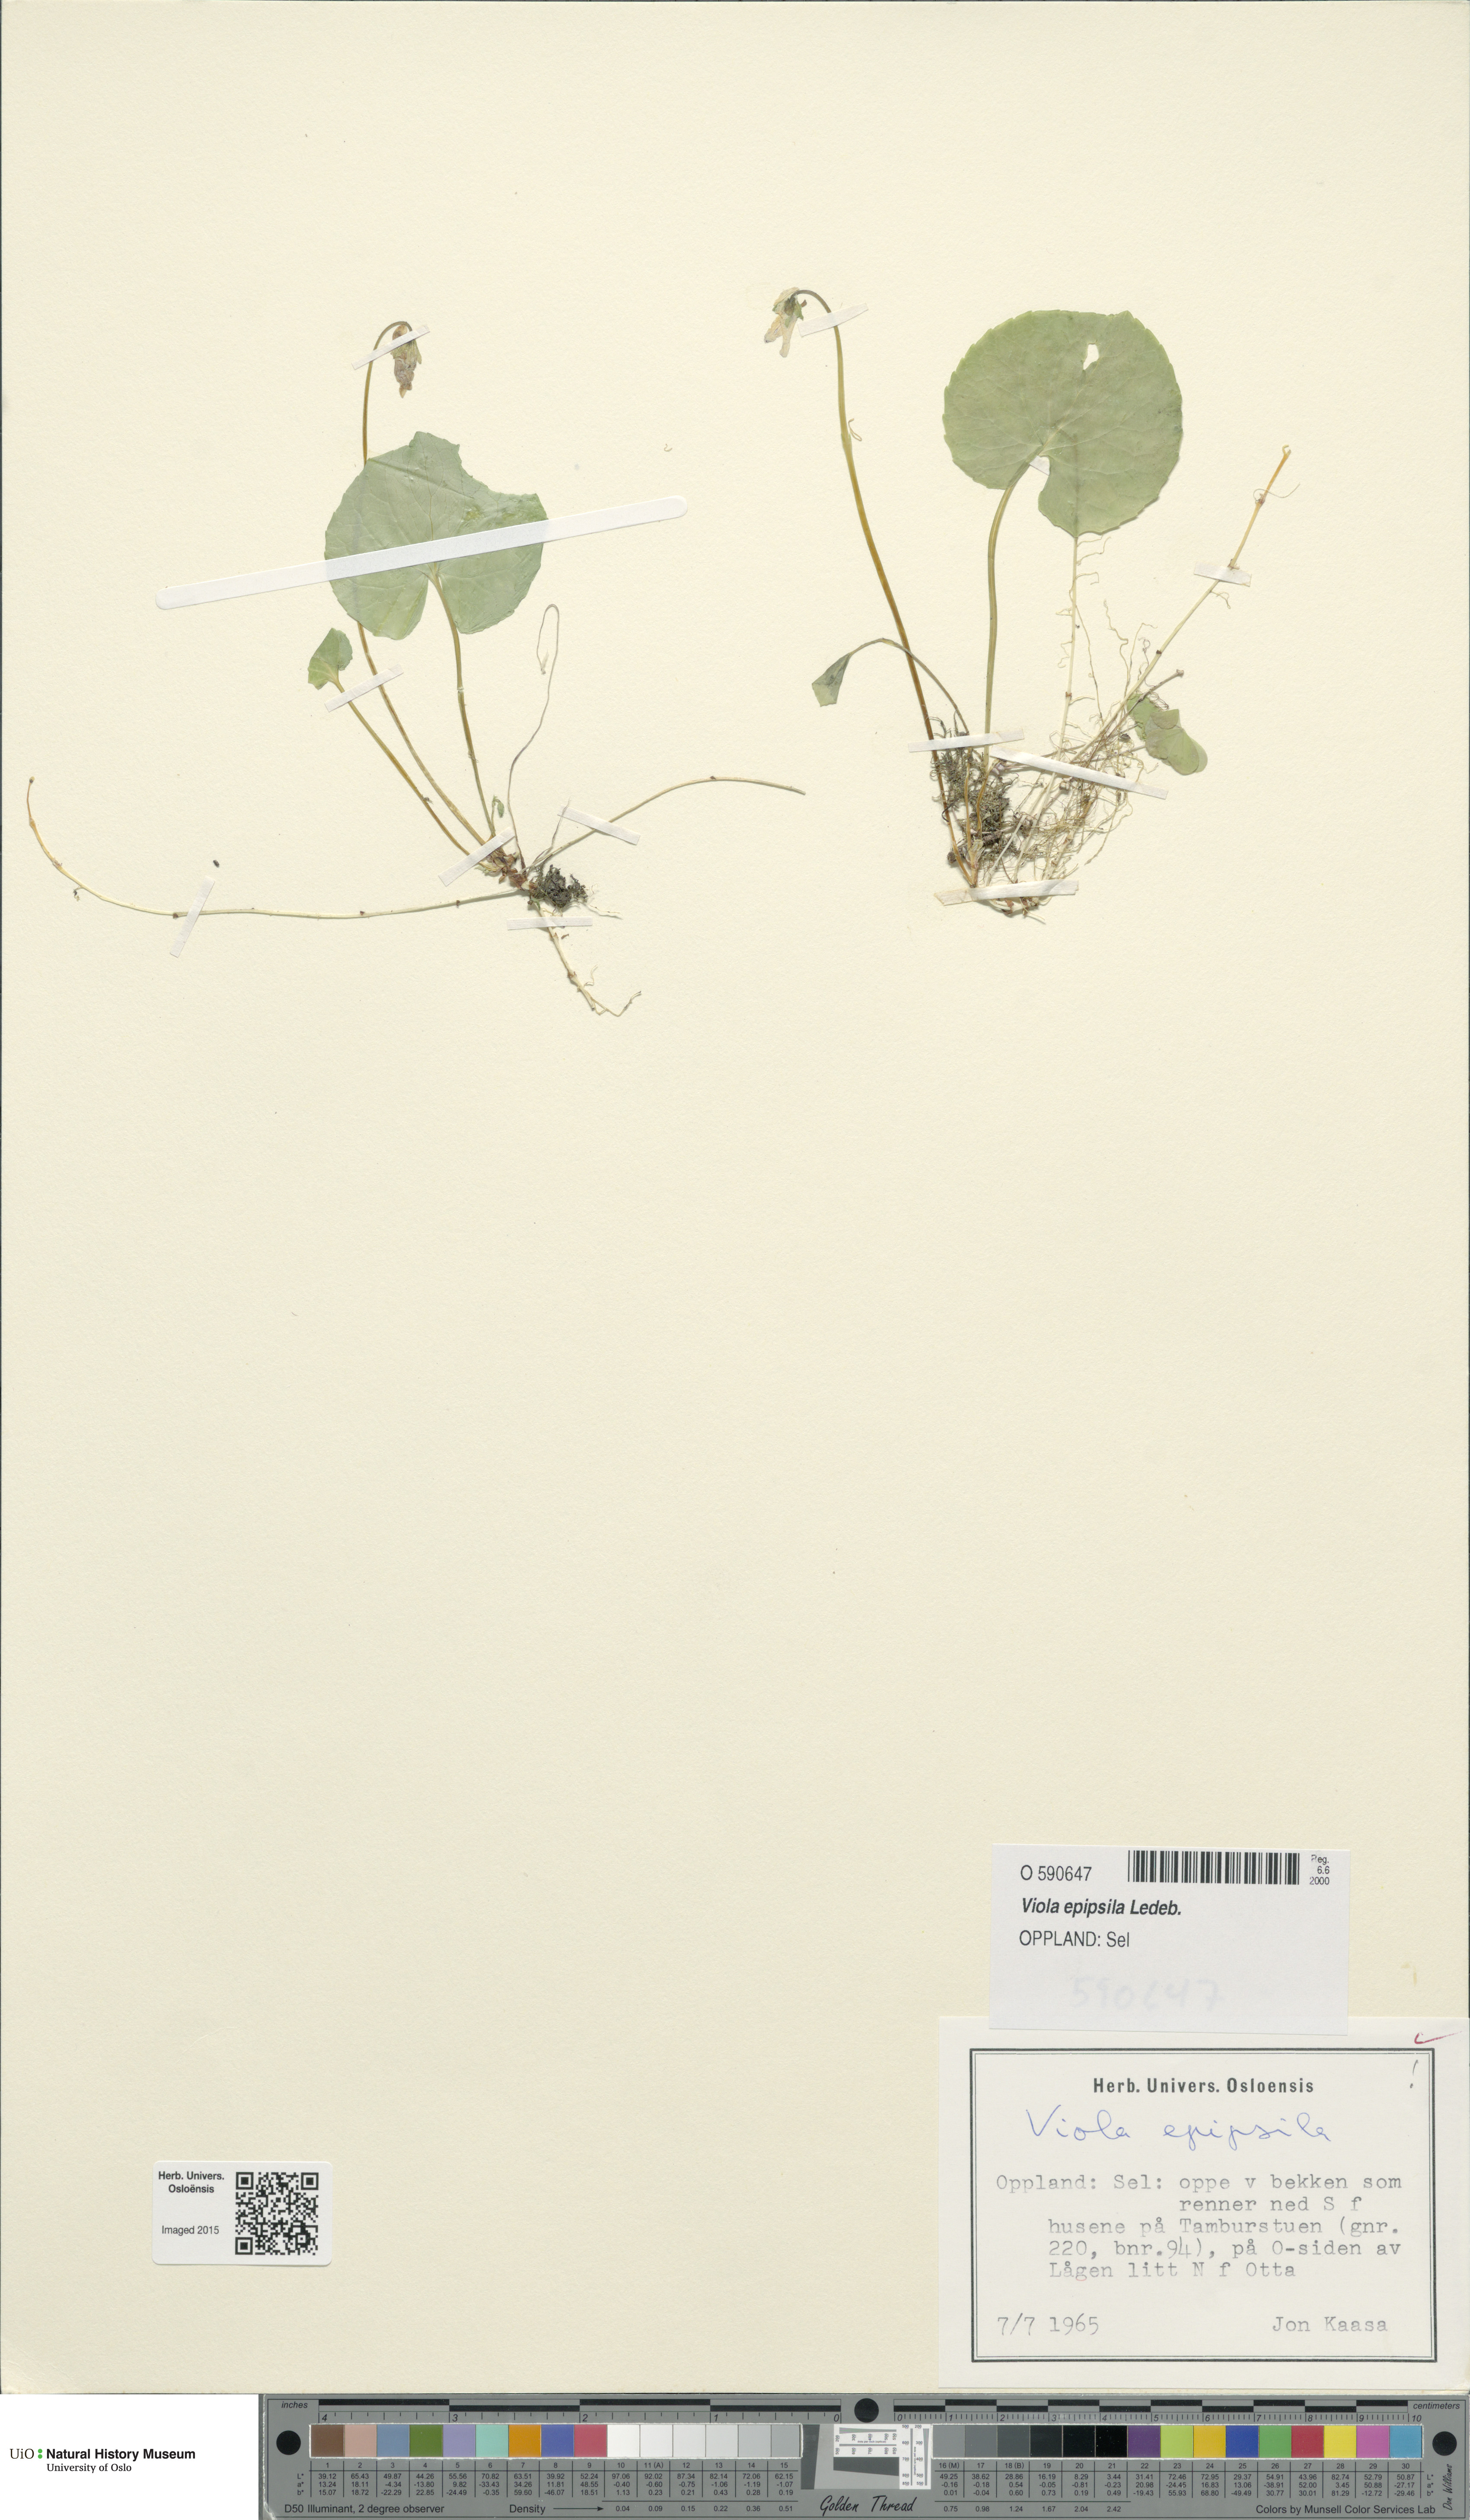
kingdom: Plantae
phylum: Tracheophyta
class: Magnoliopsida
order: Malpighiales
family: Violaceae
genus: Viola
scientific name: Viola epipsila
